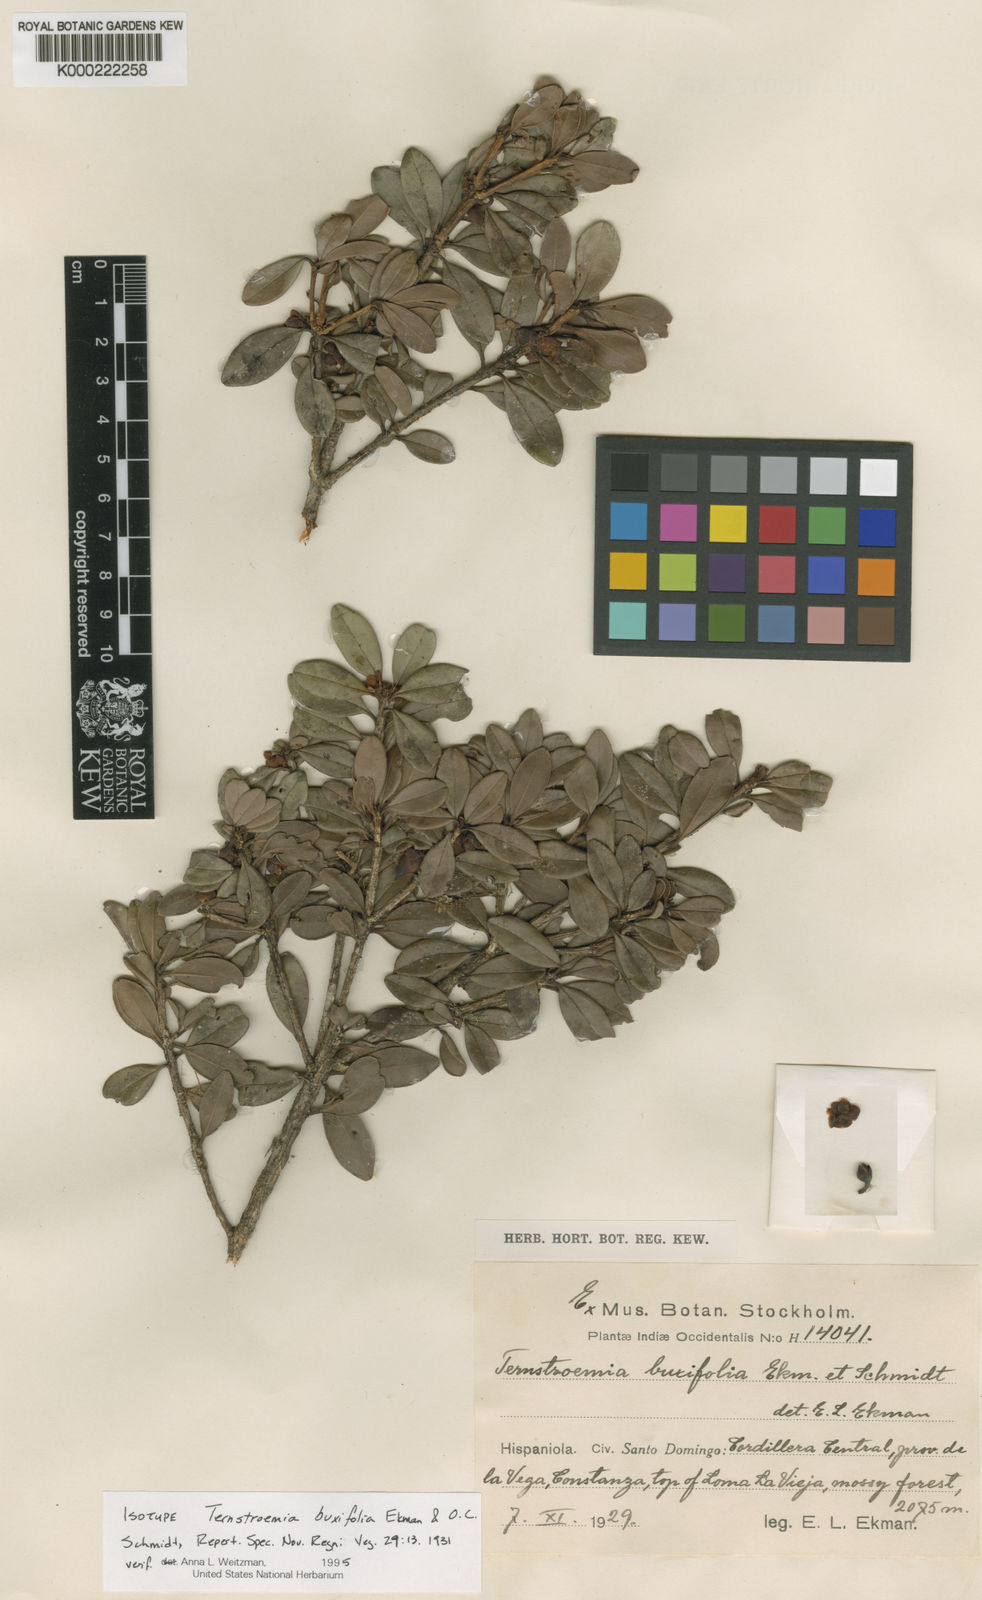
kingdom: Plantae
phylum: Tracheophyta
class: Magnoliopsida
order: Ericales
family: Pentaphylacaceae
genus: Ternstroemia
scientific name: Ternstroemia buxifolia
